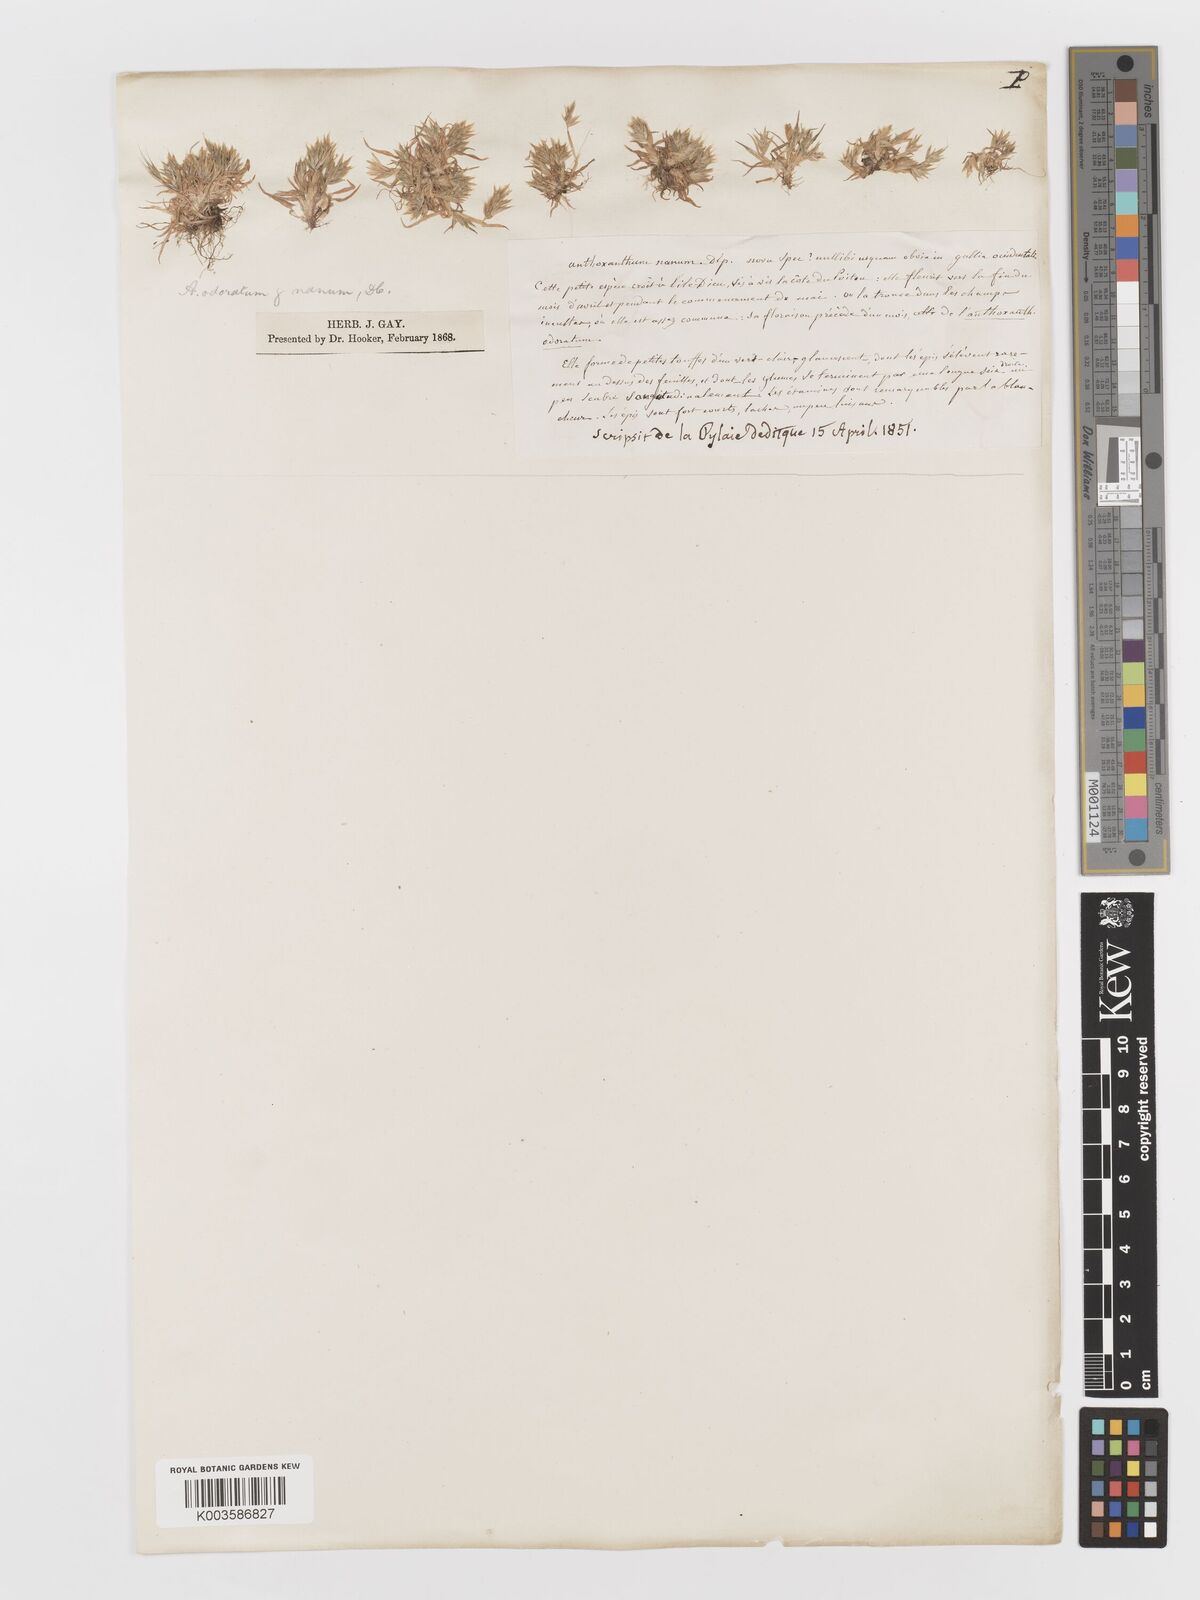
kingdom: Plantae
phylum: Tracheophyta
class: Liliopsida
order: Poales
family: Poaceae
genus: Anthoxanthum
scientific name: Anthoxanthum
